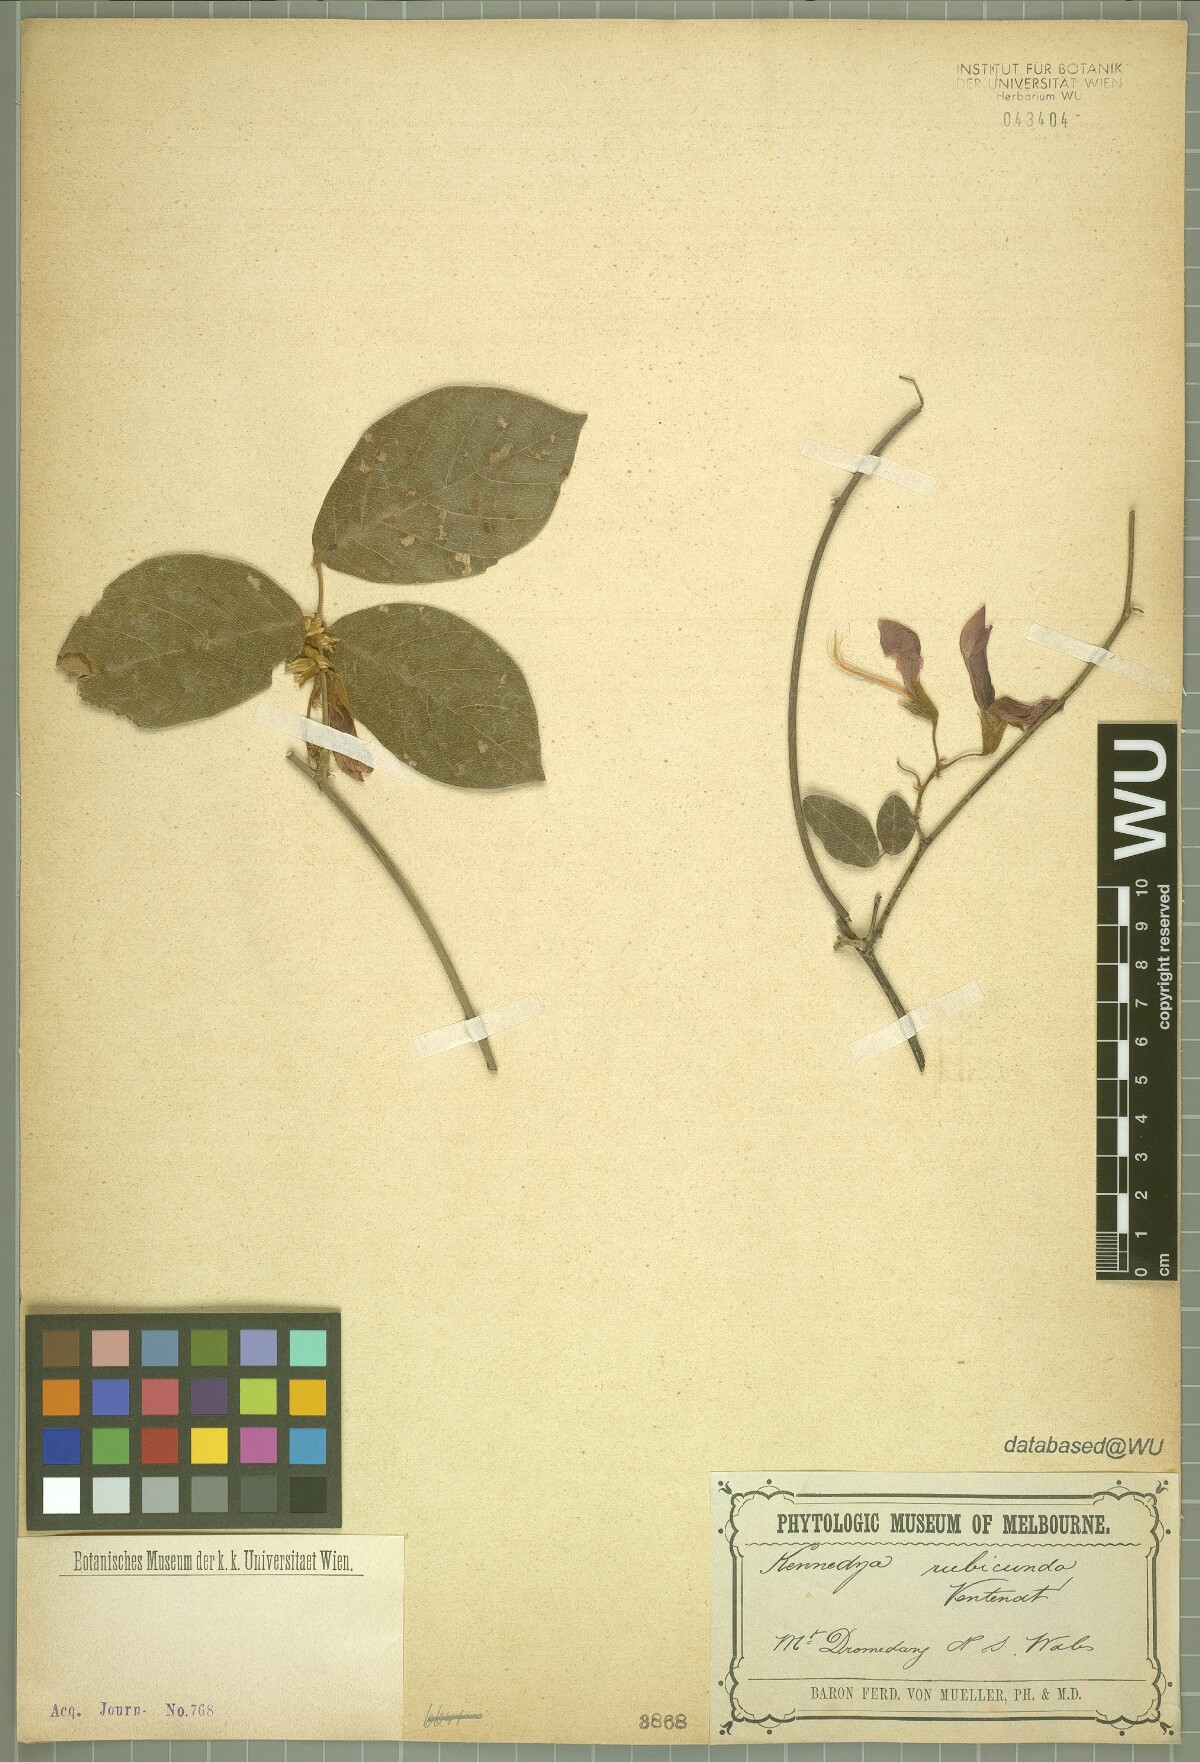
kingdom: Plantae
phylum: Tracheophyta
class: Magnoliopsida
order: Fabales
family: Fabaceae
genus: Kennedia
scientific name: Kennedia rubicunda
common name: Red kennedy-pea
